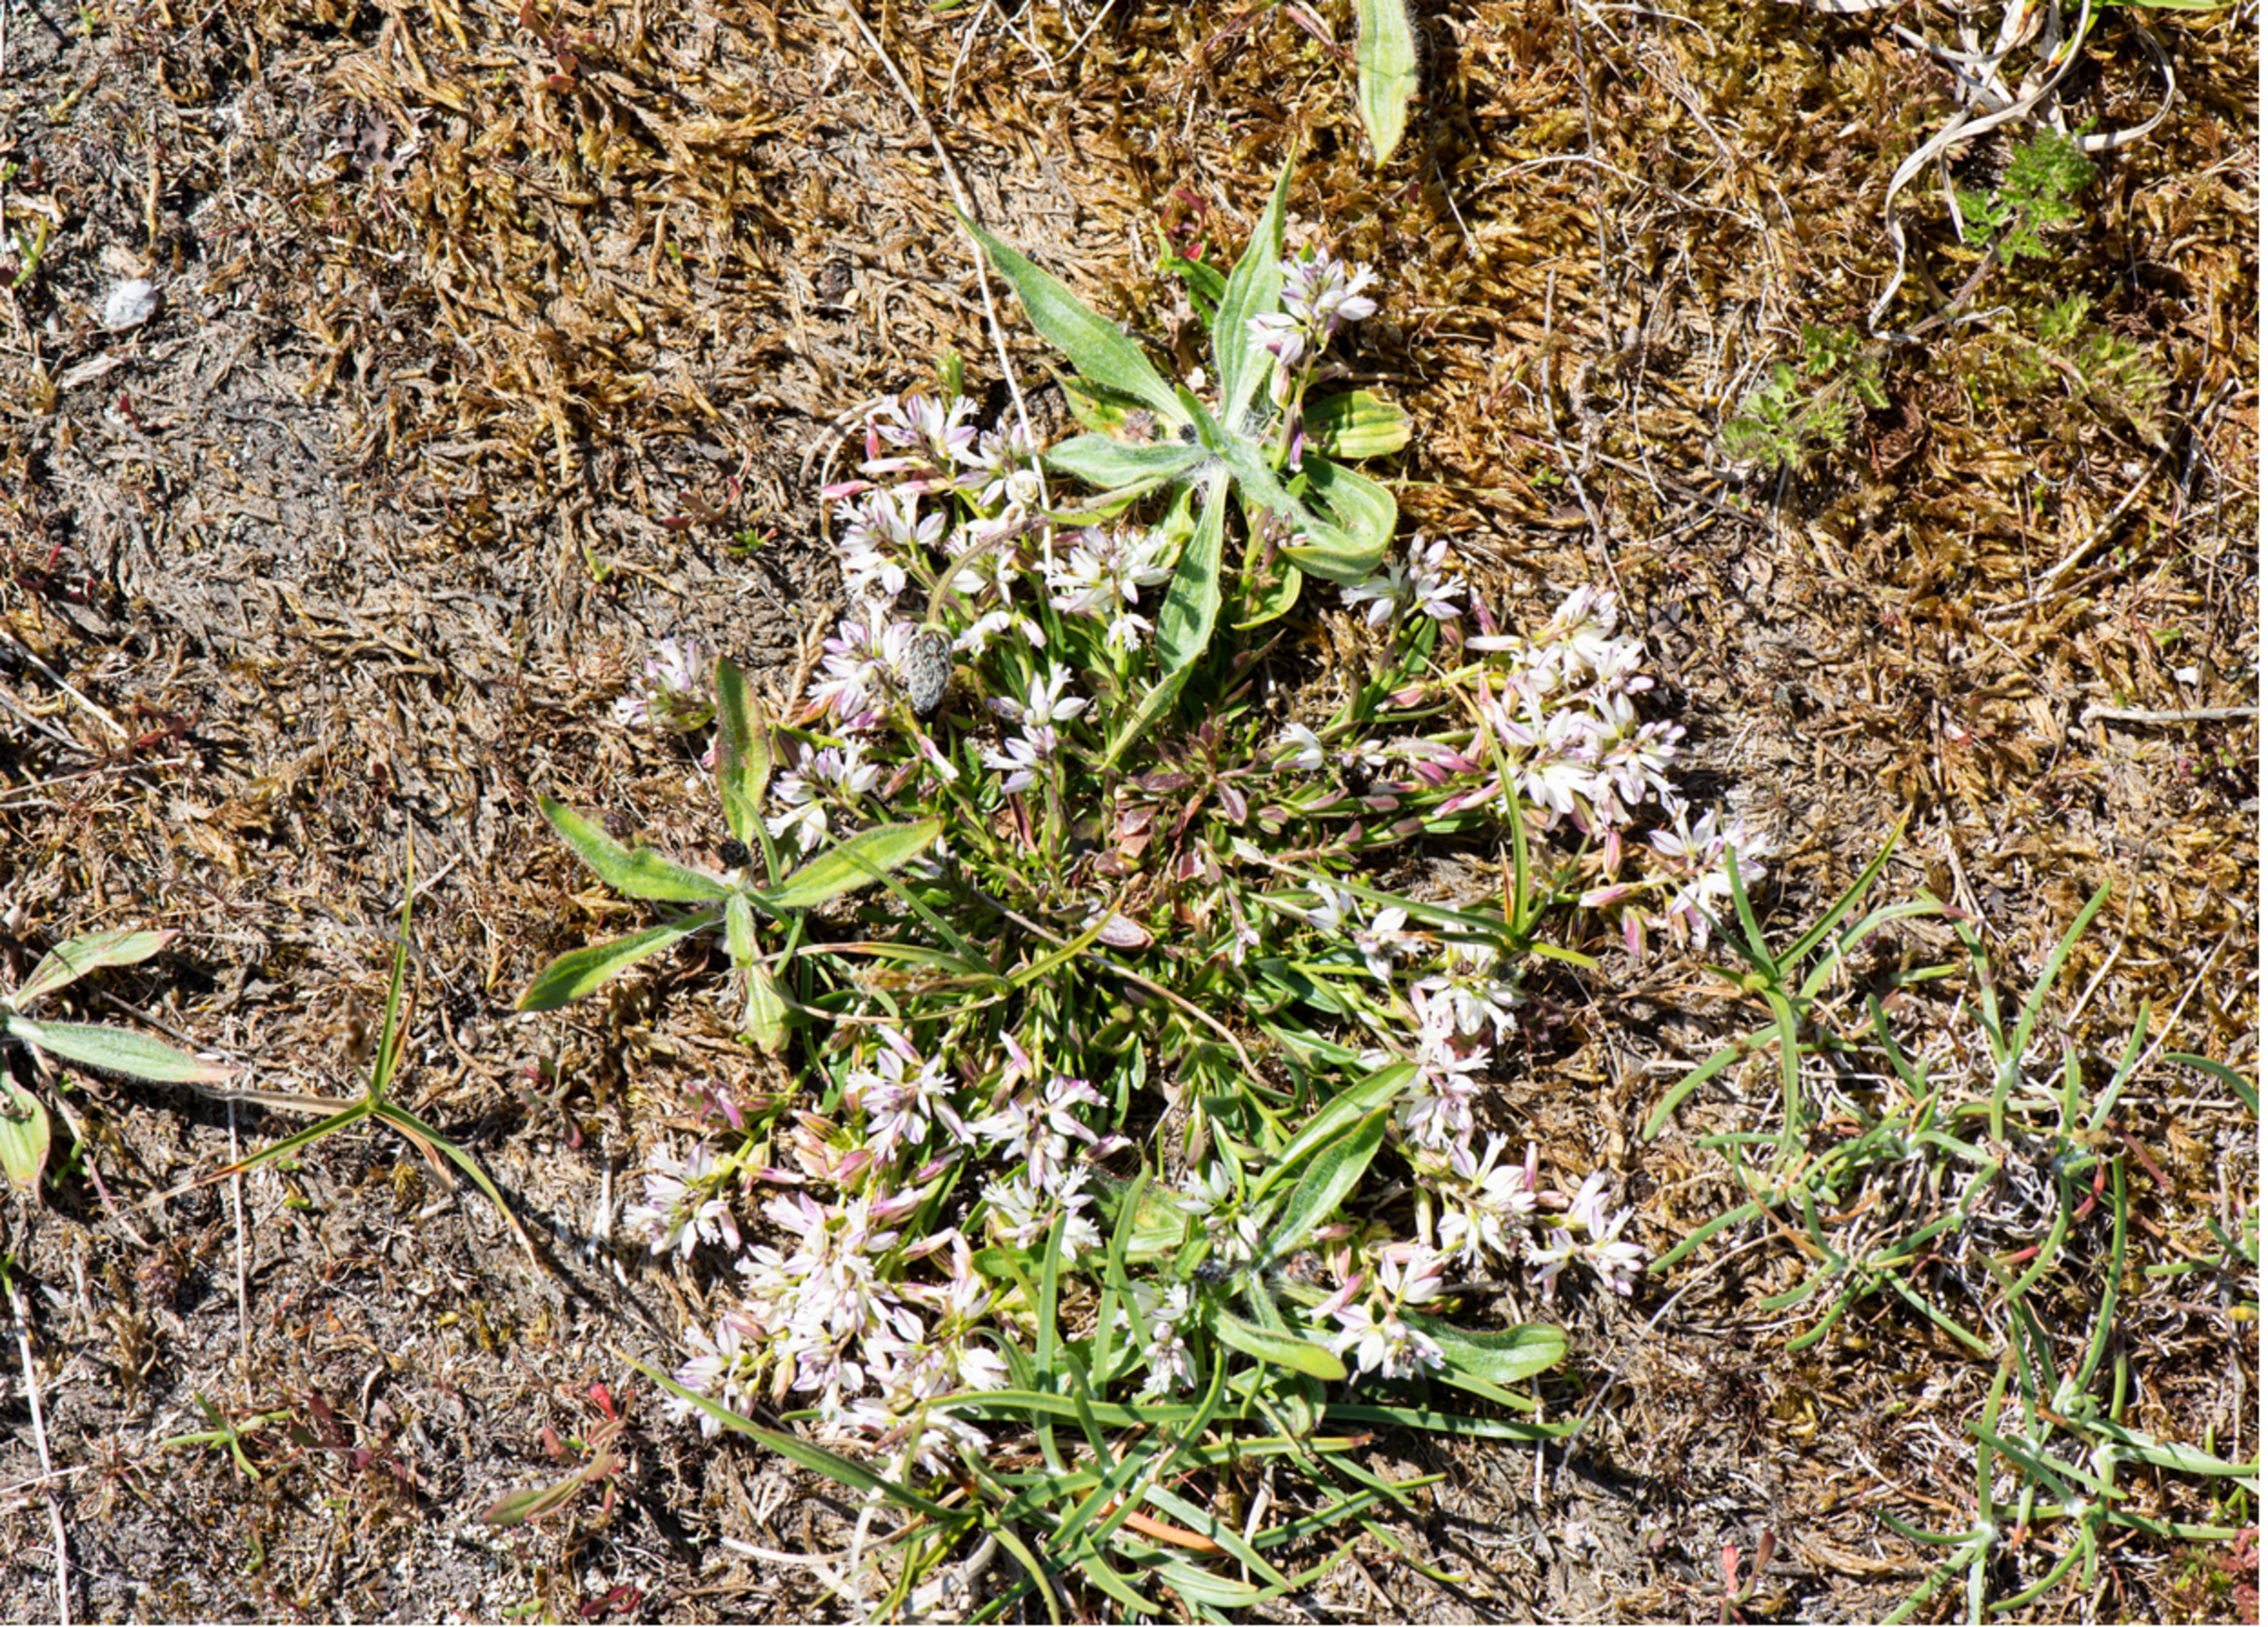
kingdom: Plantae
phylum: Tracheophyta
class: Magnoliopsida
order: Fabales
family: Polygalaceae
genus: Polygala
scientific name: Polygala vulgaris
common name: Almindelig mælkeurt
